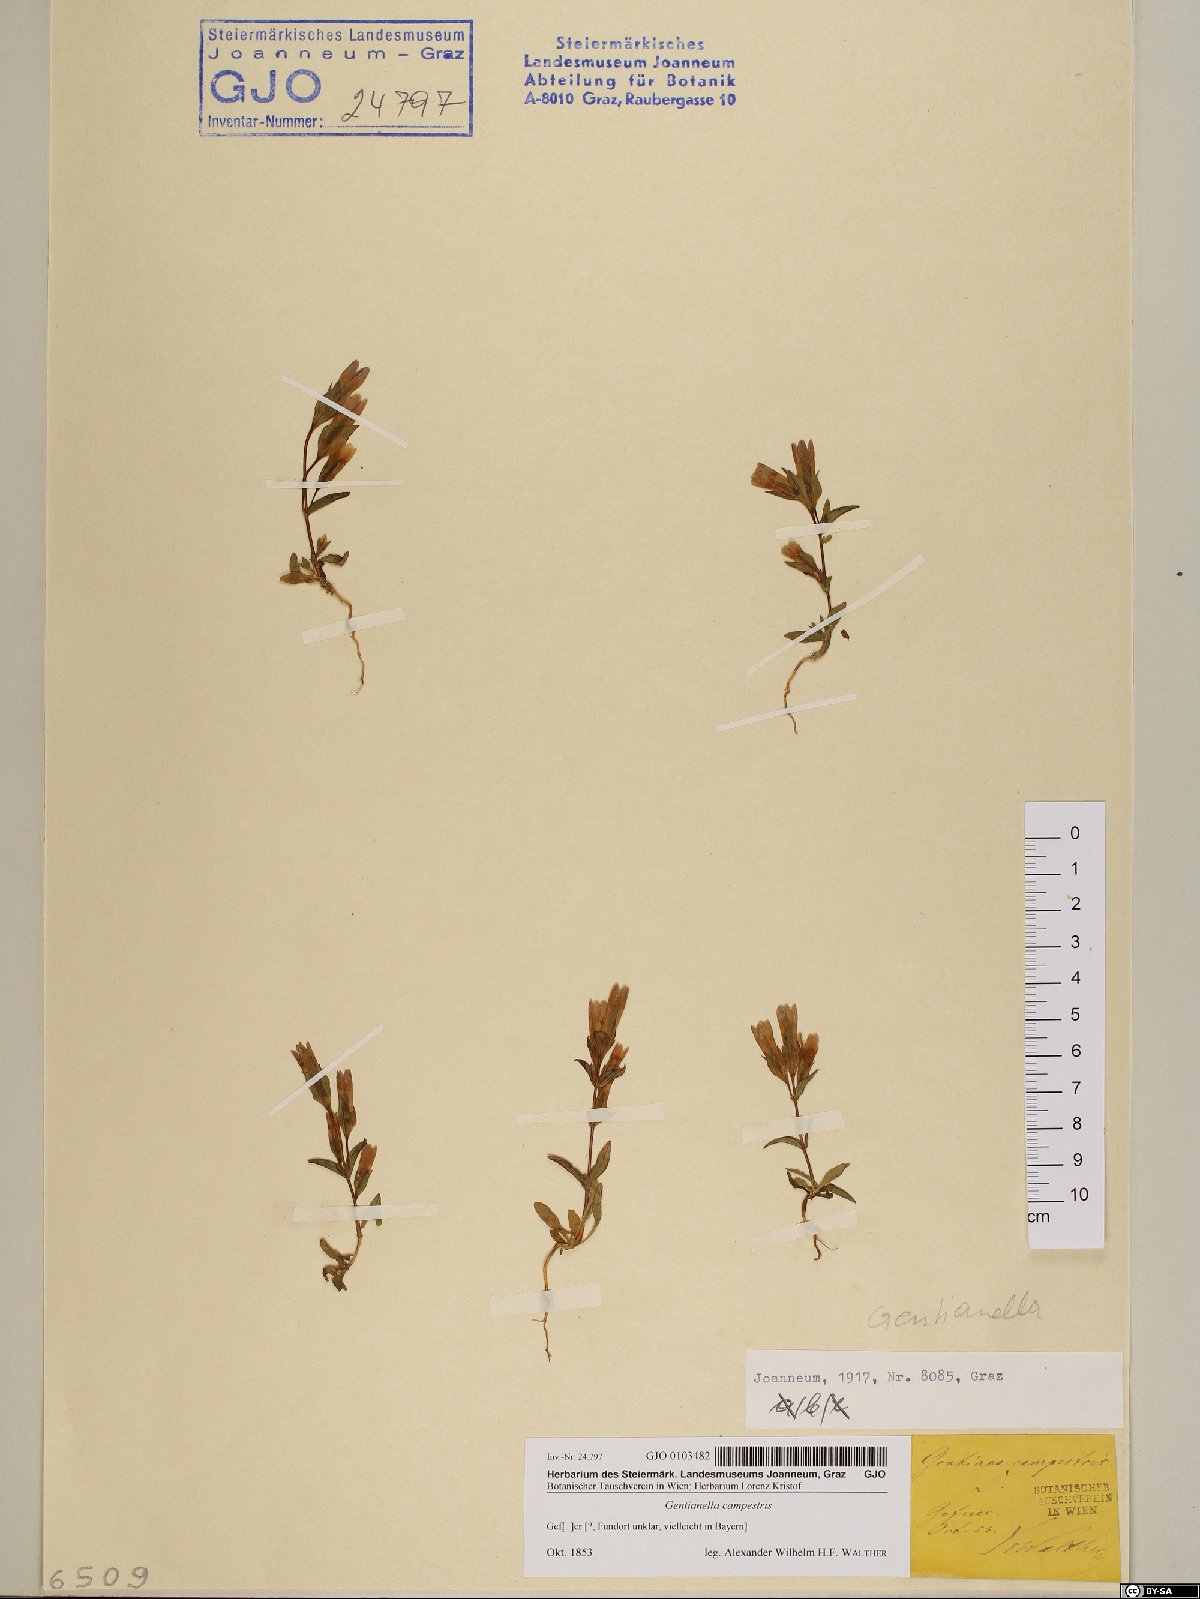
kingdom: Plantae
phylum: Tracheophyta
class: Magnoliopsida
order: Gentianales
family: Gentianaceae
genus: Gentianella
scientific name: Gentianella campestris
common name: Field gentian
